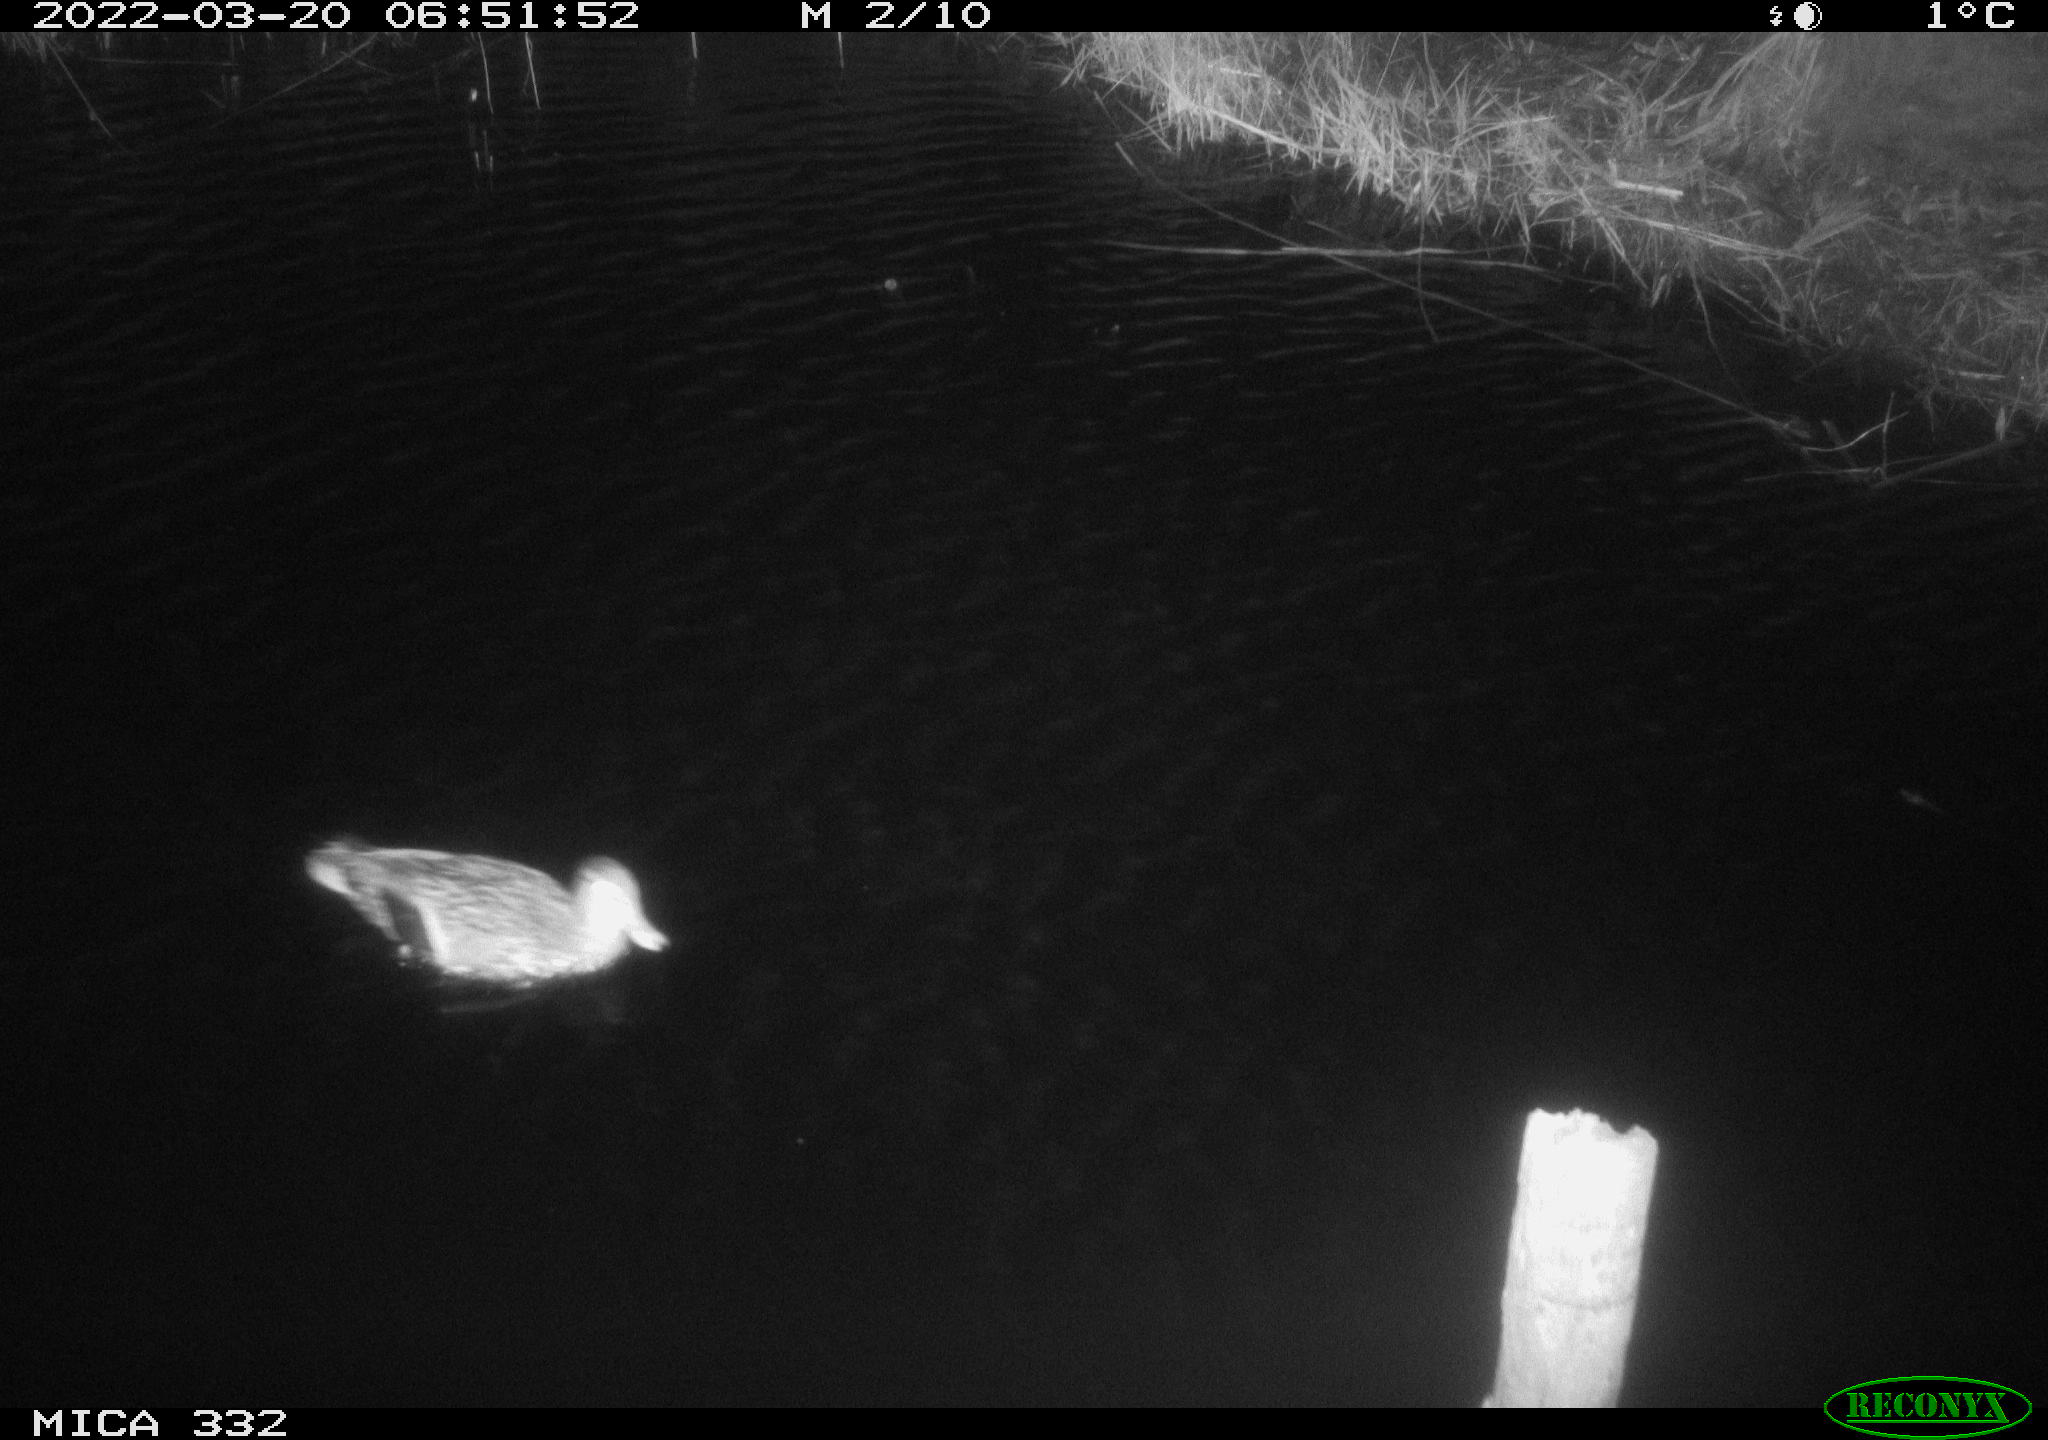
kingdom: Animalia
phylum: Chordata
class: Aves
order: Anseriformes
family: Anatidae
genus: Anas
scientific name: Anas platyrhynchos
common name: Mallard
